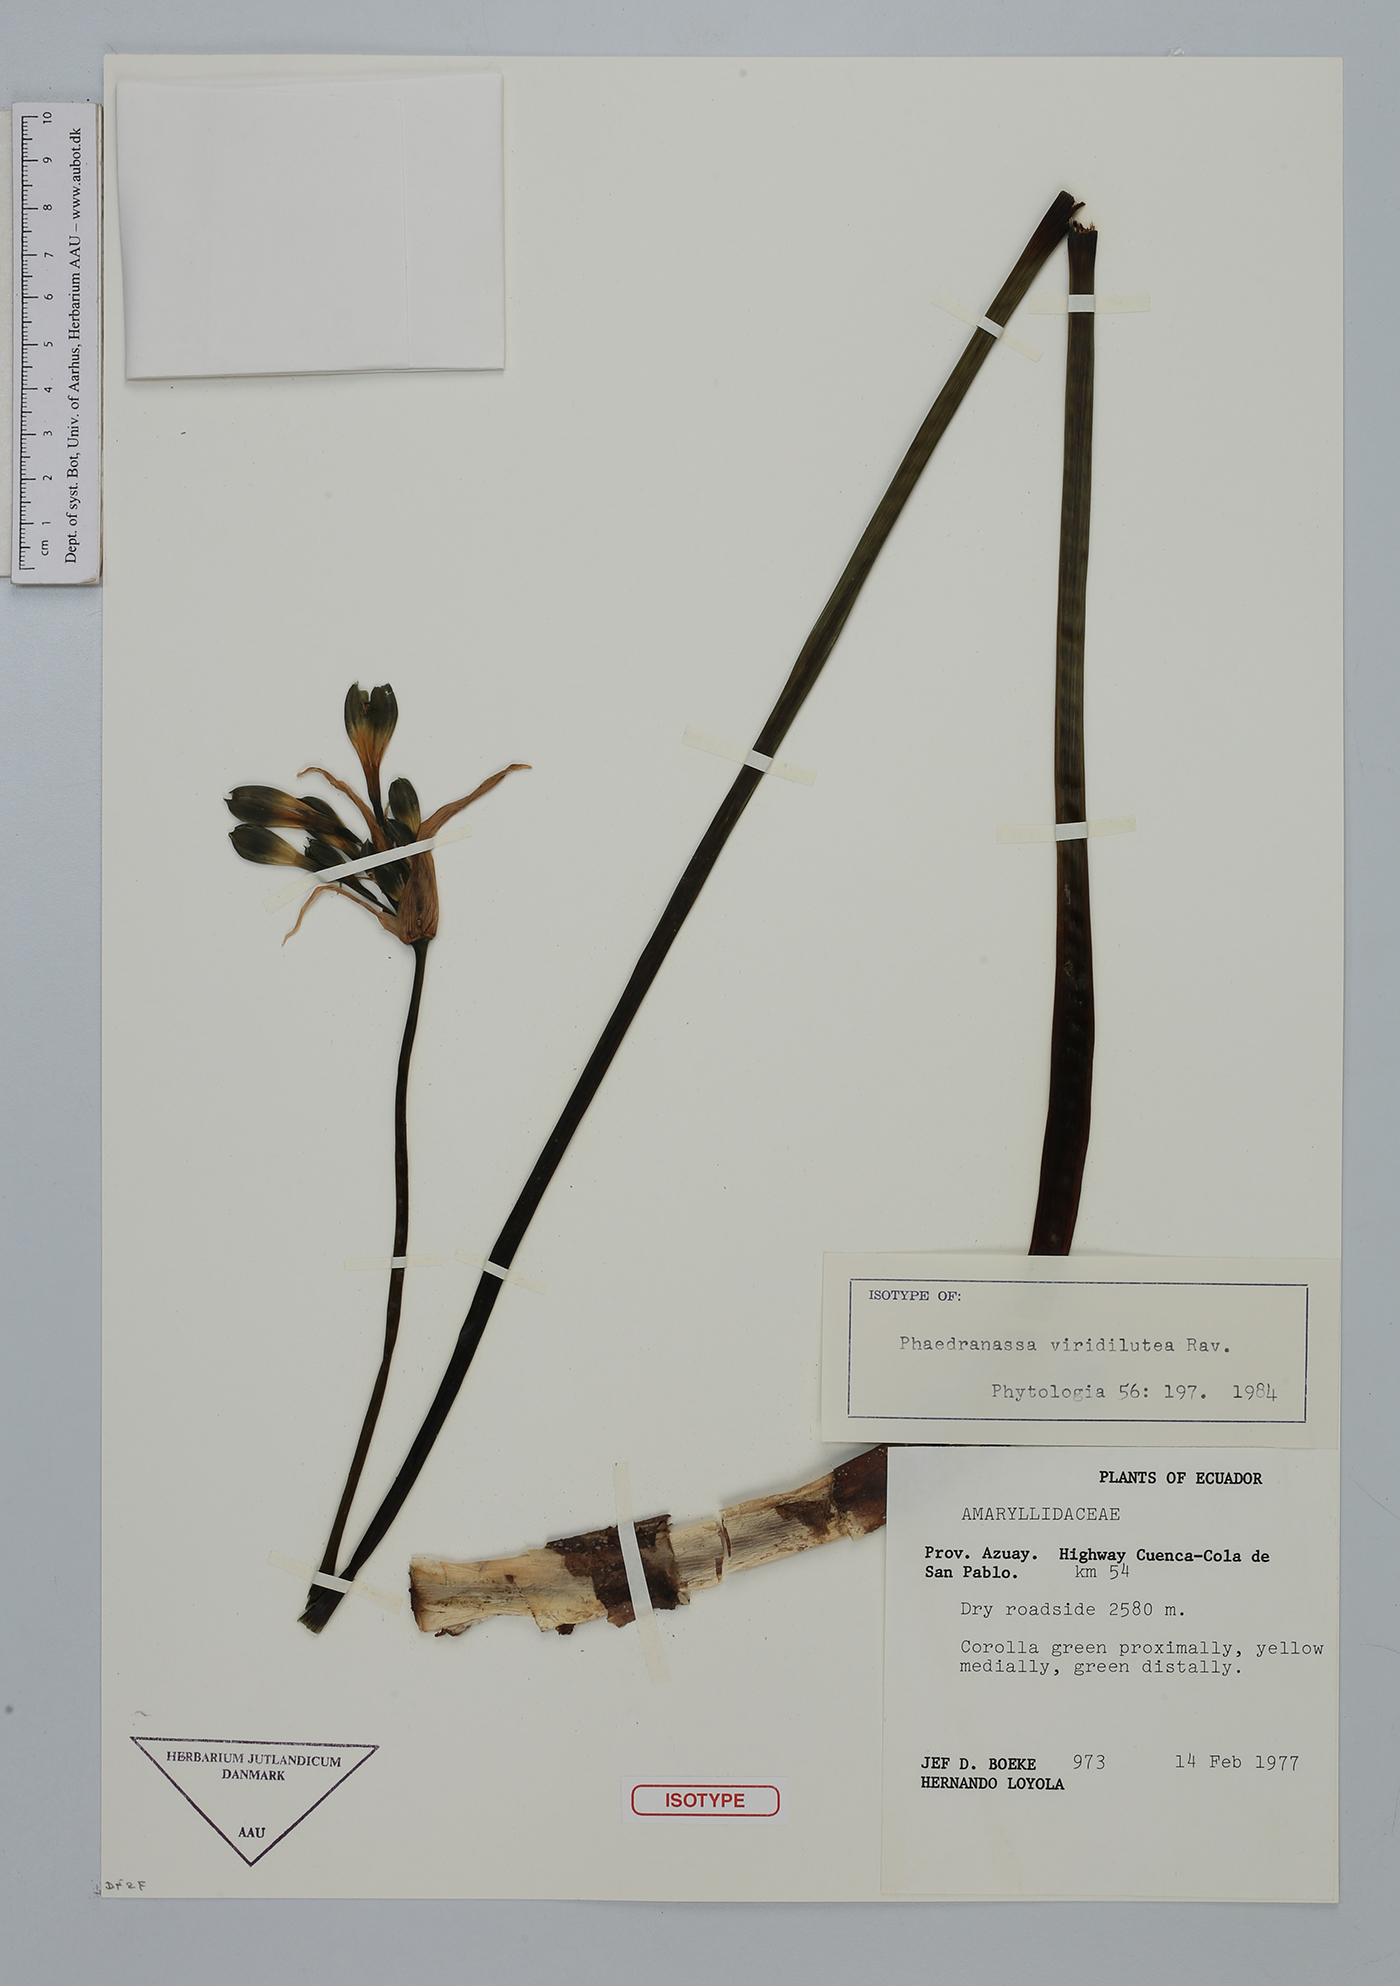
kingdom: Plantae
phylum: Tracheophyta
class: Liliopsida
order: Asparagales
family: Amaryllidaceae
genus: Phaedranassa
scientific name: Phaedranassa viridiflora
